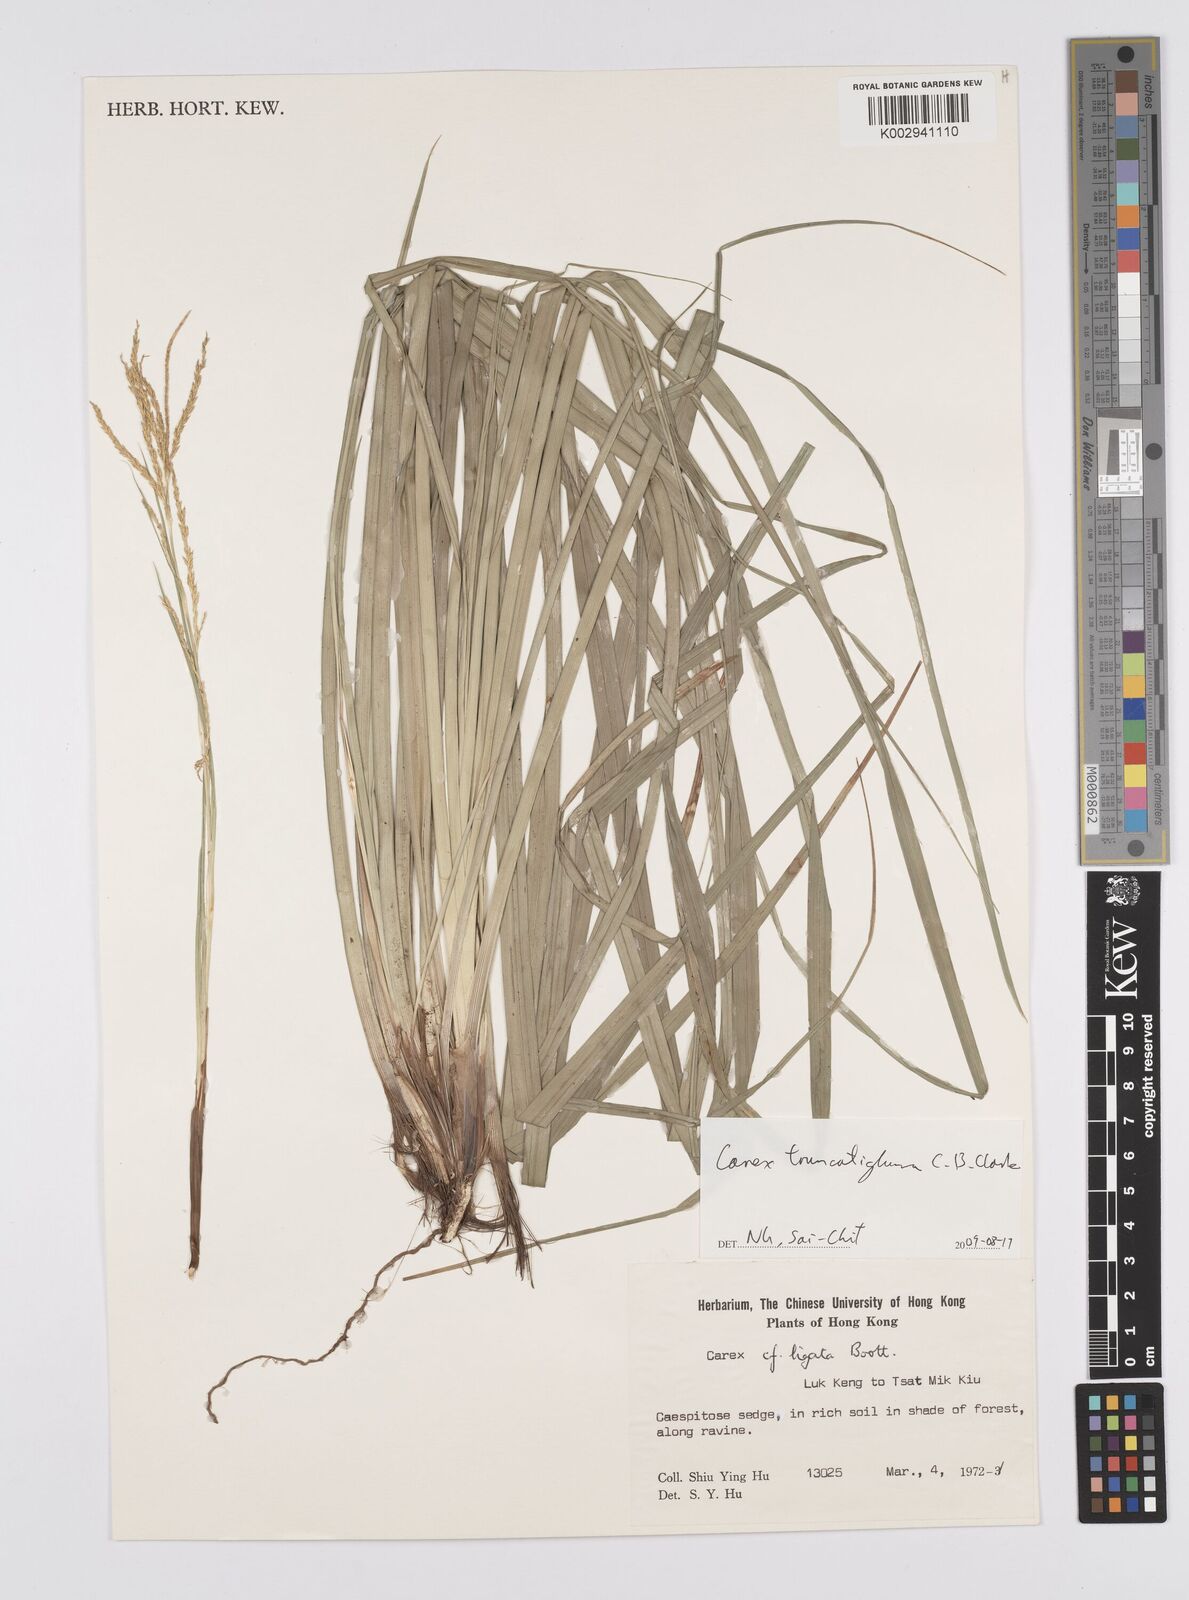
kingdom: Plantae
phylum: Tracheophyta
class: Liliopsida
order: Poales
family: Cyperaceae
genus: Carex
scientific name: Carex truncatigluma
